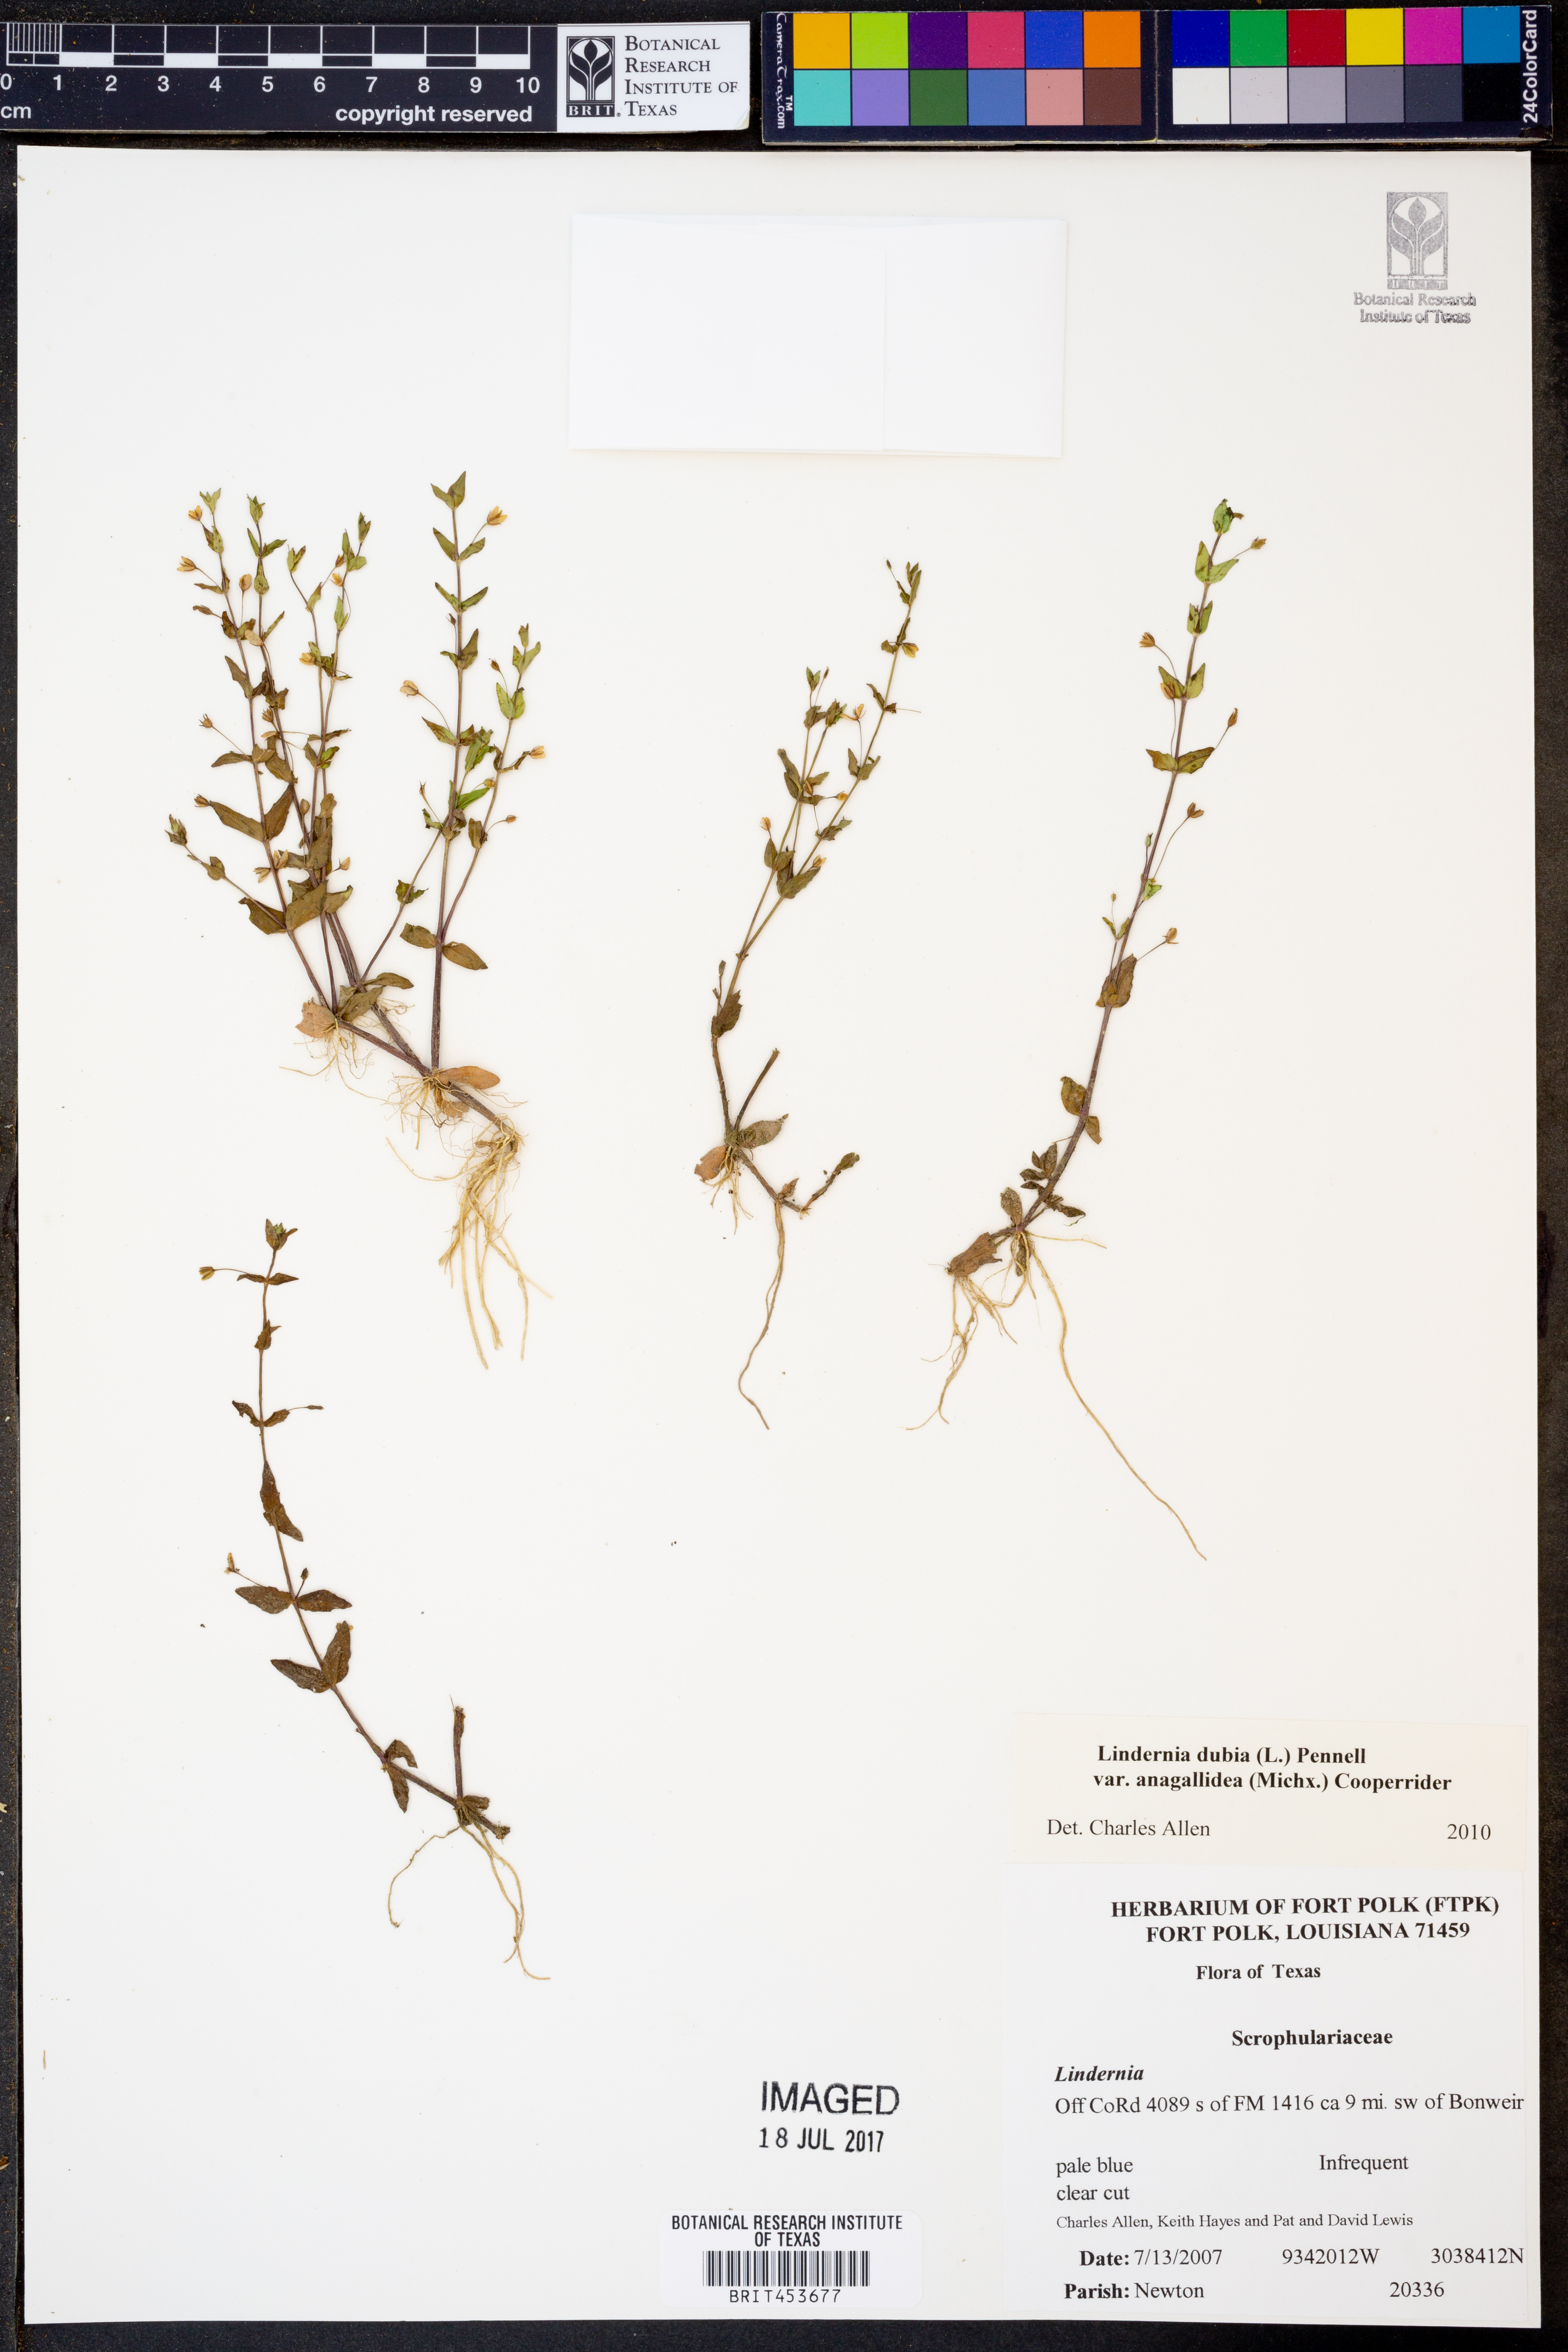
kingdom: Plantae
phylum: Tracheophyta
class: Magnoliopsida
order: Lamiales
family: Linderniaceae
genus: Lindernia
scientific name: Lindernia dubia
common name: Annual false pimpernel
